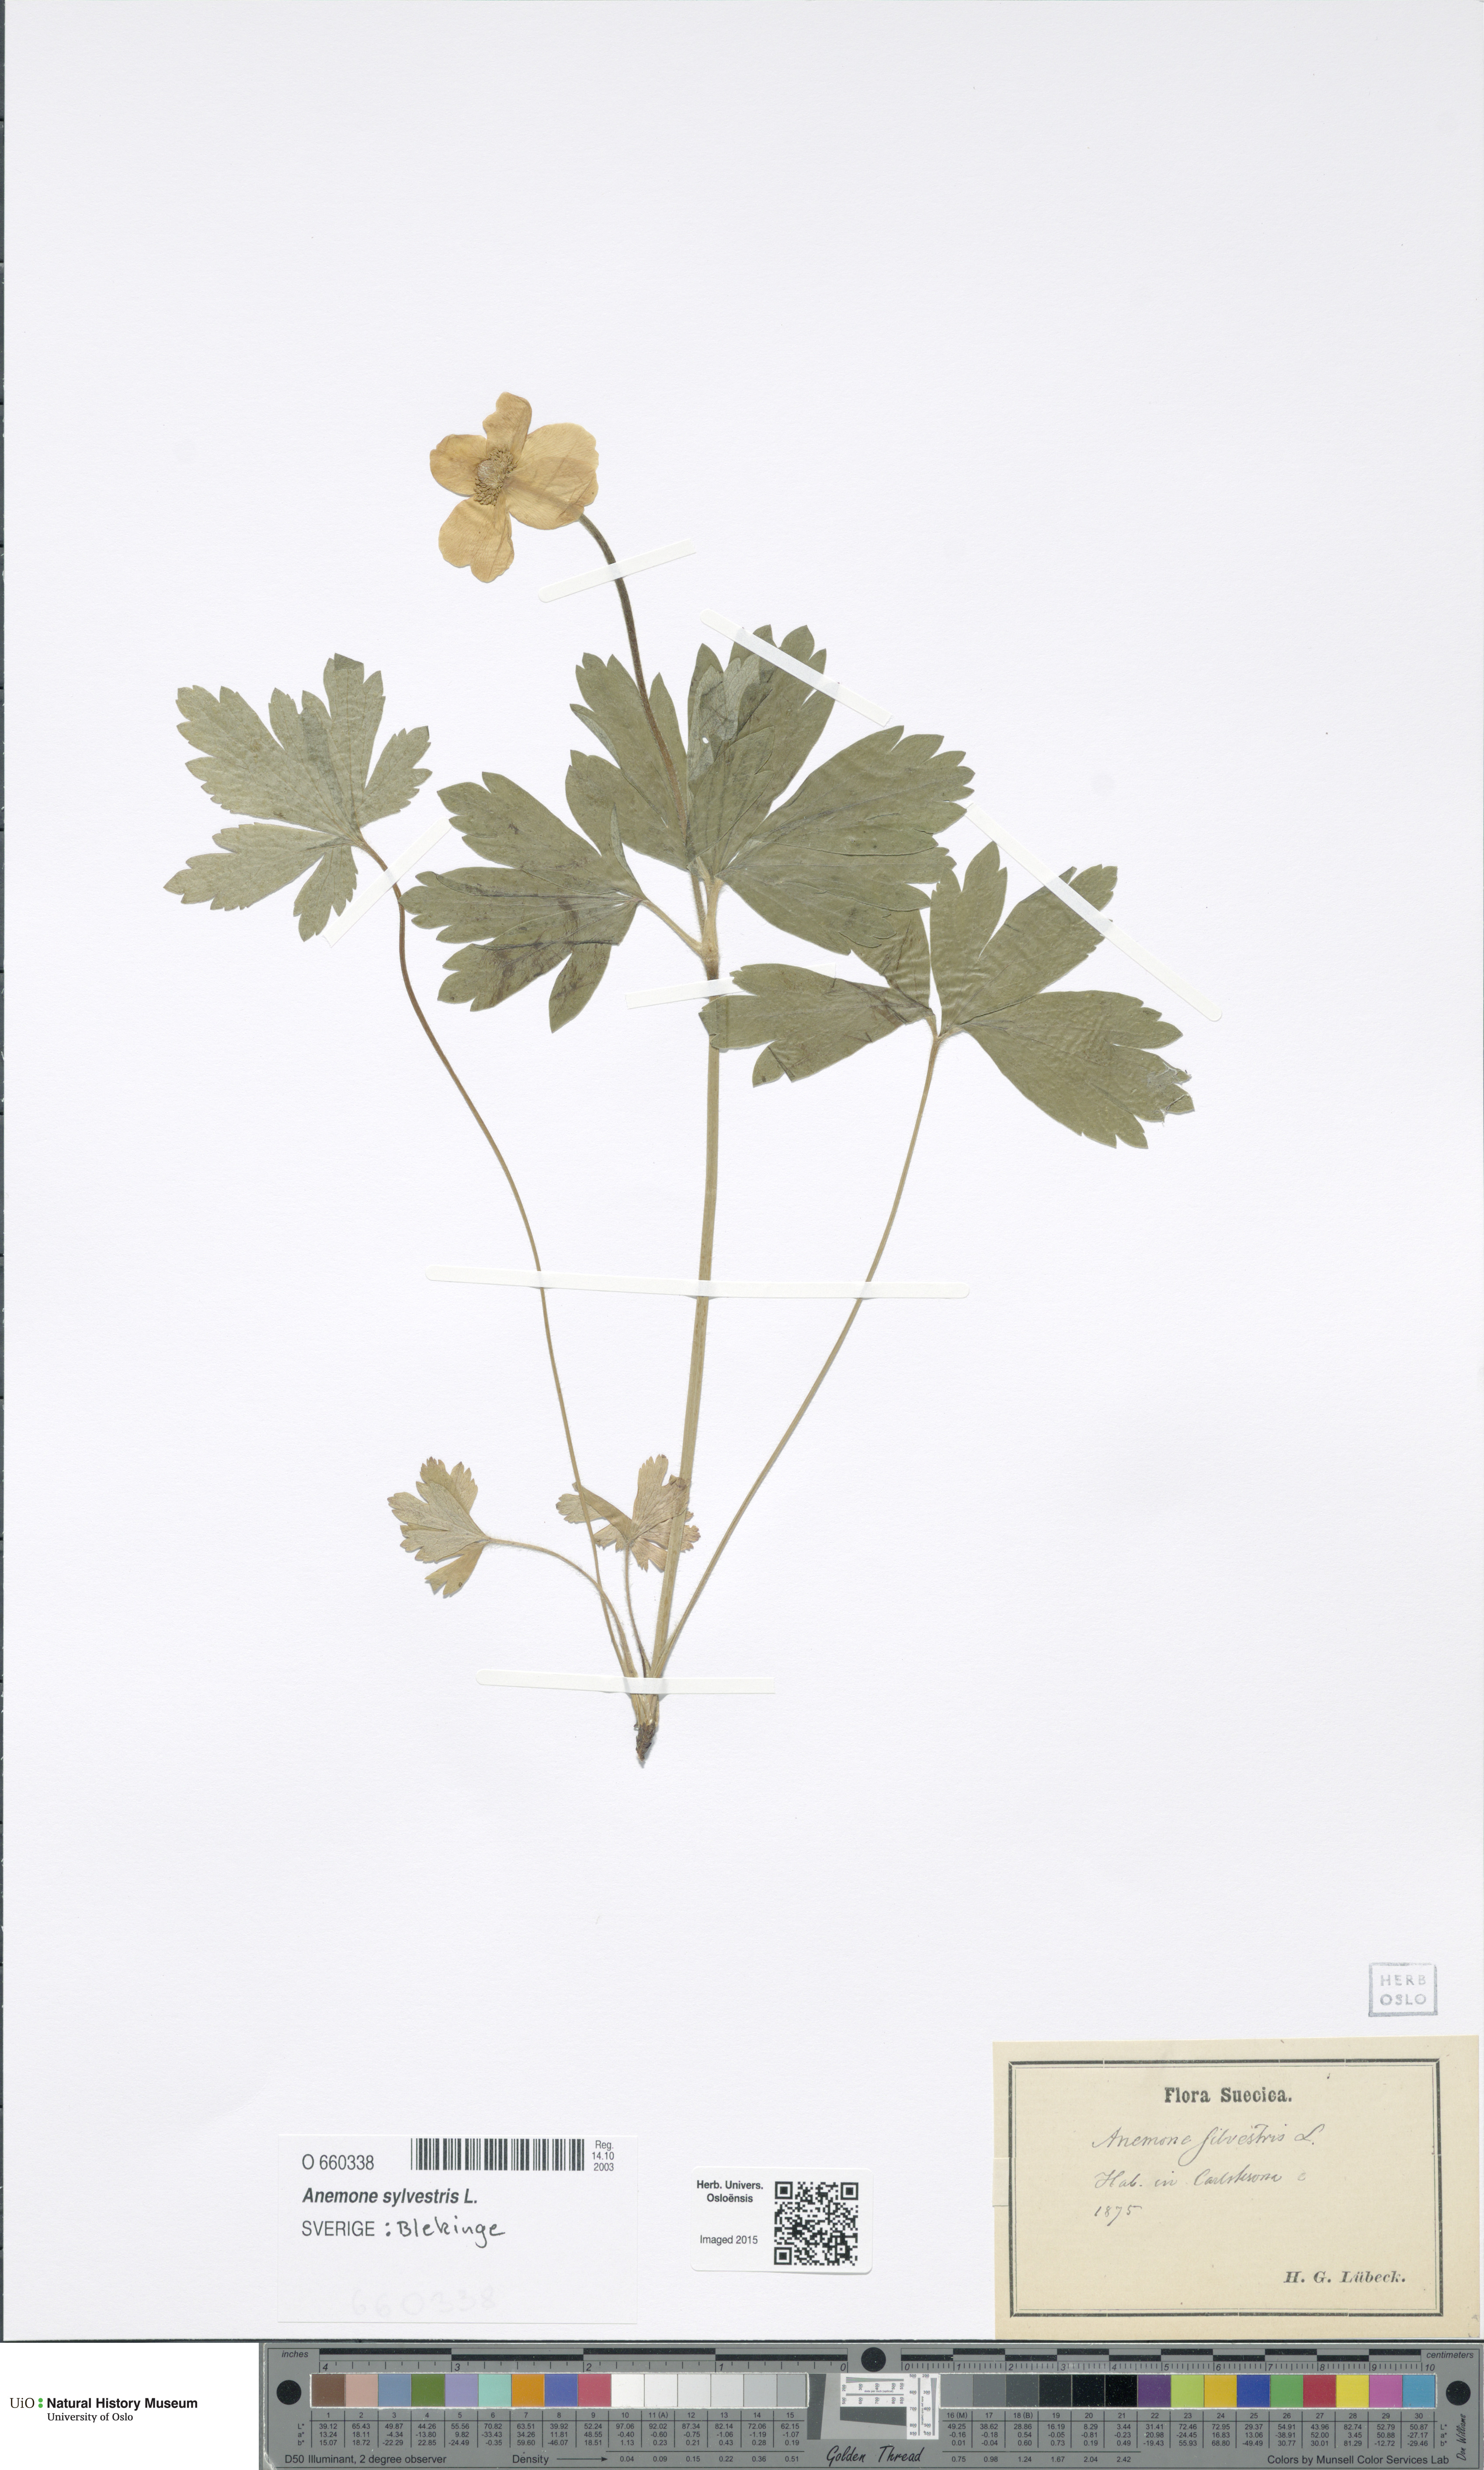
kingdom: Plantae
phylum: Tracheophyta
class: Magnoliopsida
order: Ranunculales
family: Ranunculaceae
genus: Anemone
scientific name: Anemone sylvestris
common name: Snowdrop anemone
